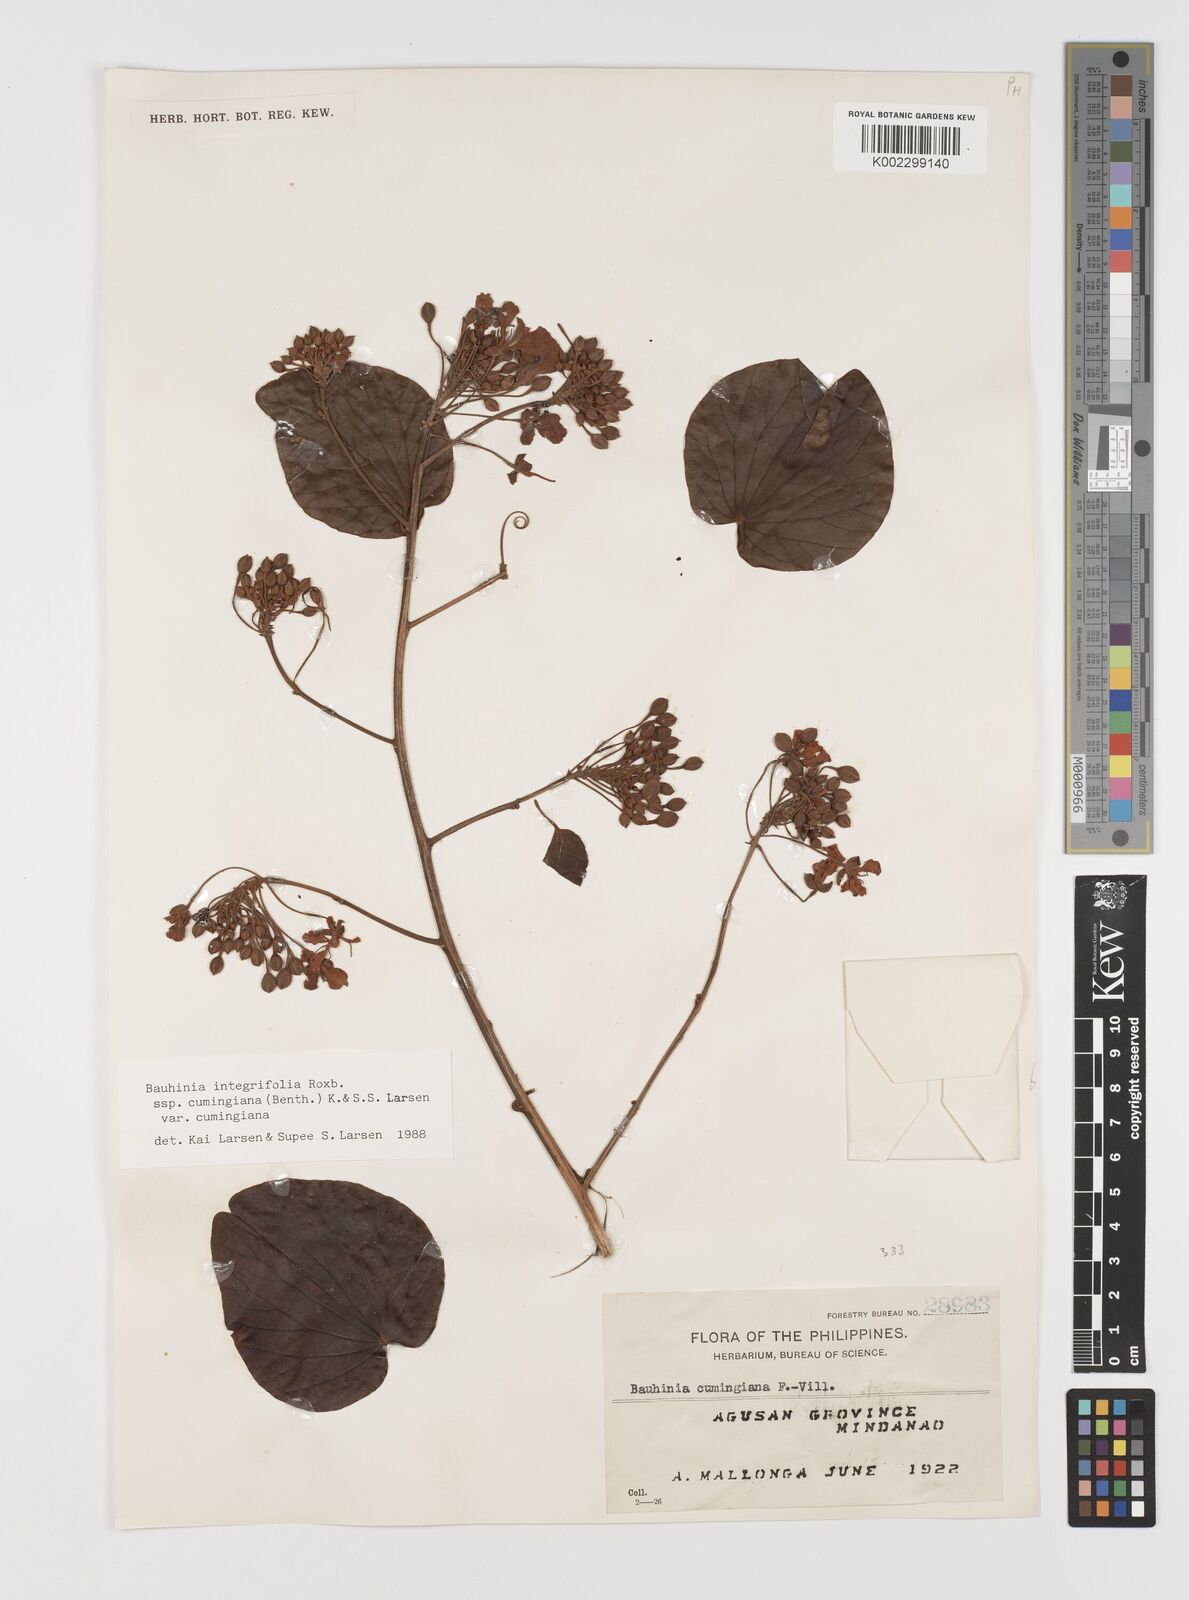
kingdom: Plantae
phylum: Tracheophyta
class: Magnoliopsida
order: Fabales
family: Fabaceae
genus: Phanera
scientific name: Phanera integrifolia
